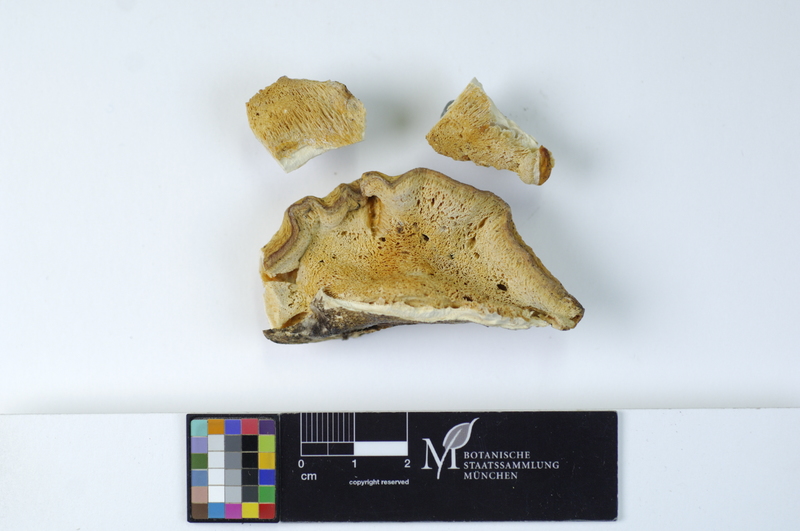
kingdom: Fungi
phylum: Basidiomycota
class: Agaricomycetes
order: Polyporales
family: Incrustoporiaceae
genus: Tyromyces
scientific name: Tyromyces chioneus
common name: White cheese polypore
